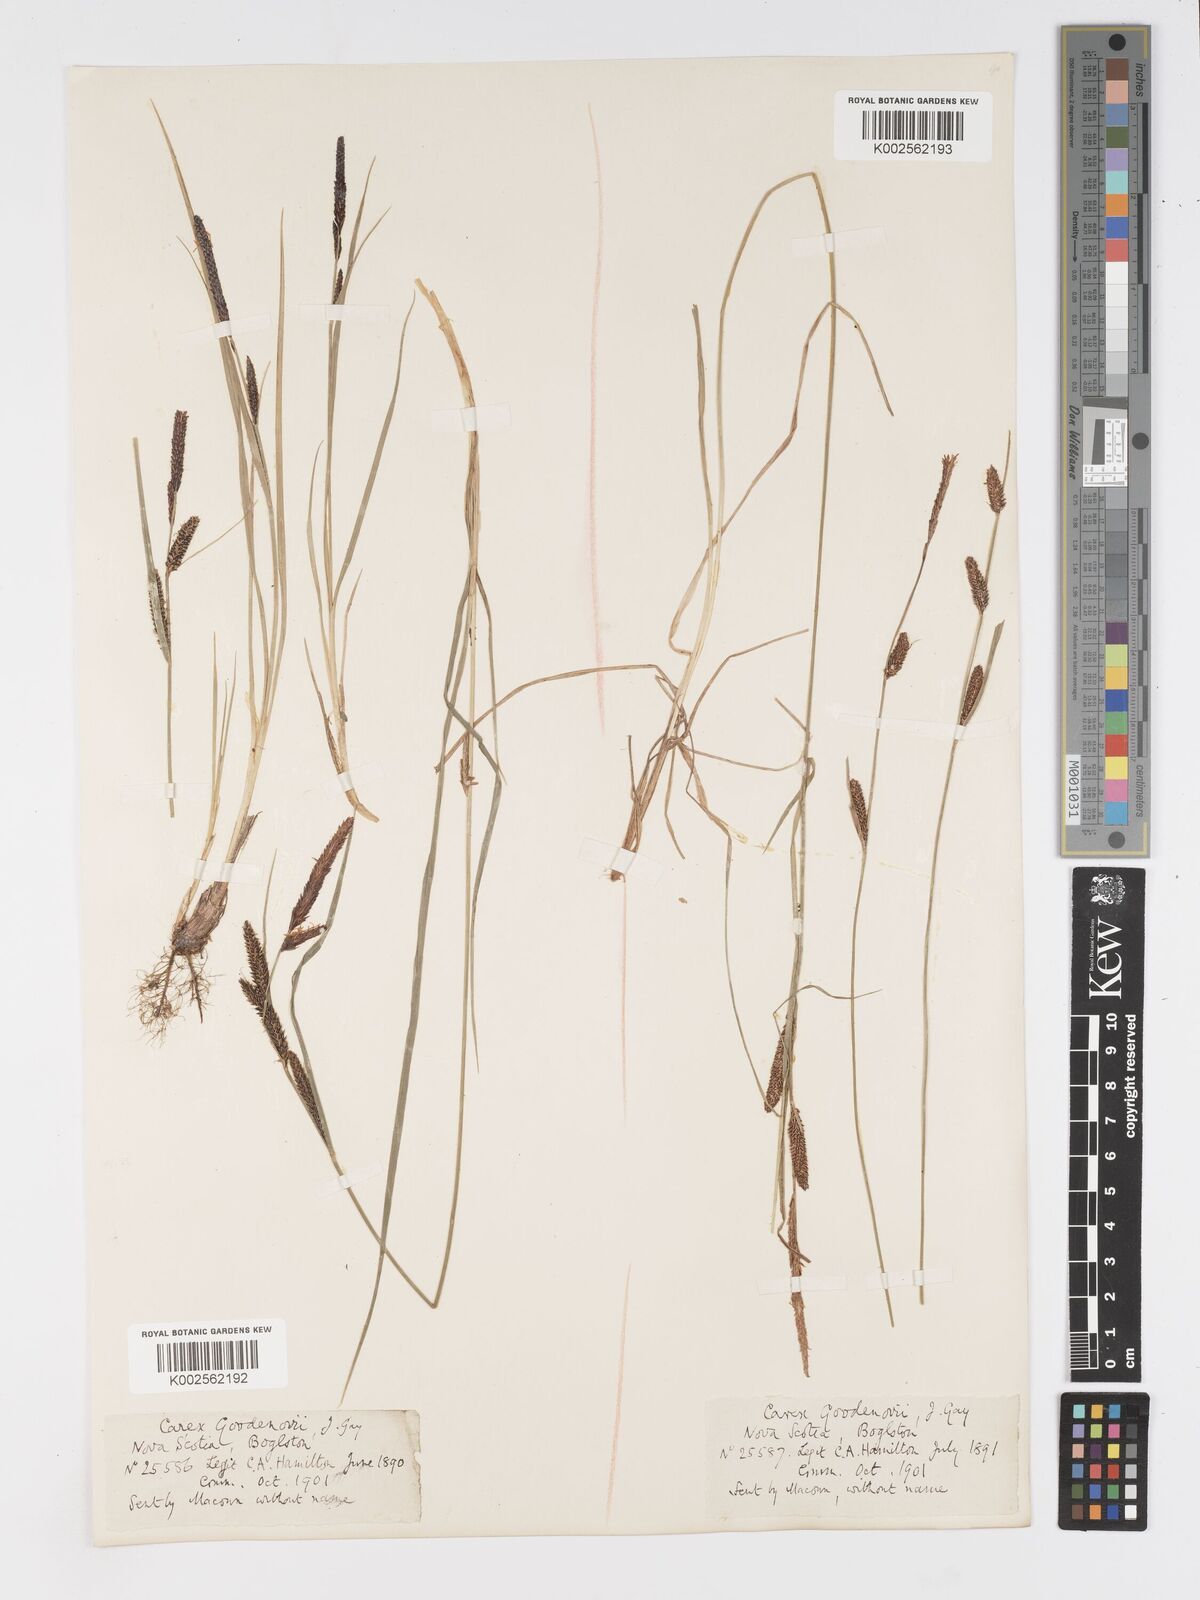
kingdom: Plantae
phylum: Tracheophyta
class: Liliopsida
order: Poales
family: Cyperaceae
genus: Carex
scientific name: Carex nigra
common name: Common sedge
